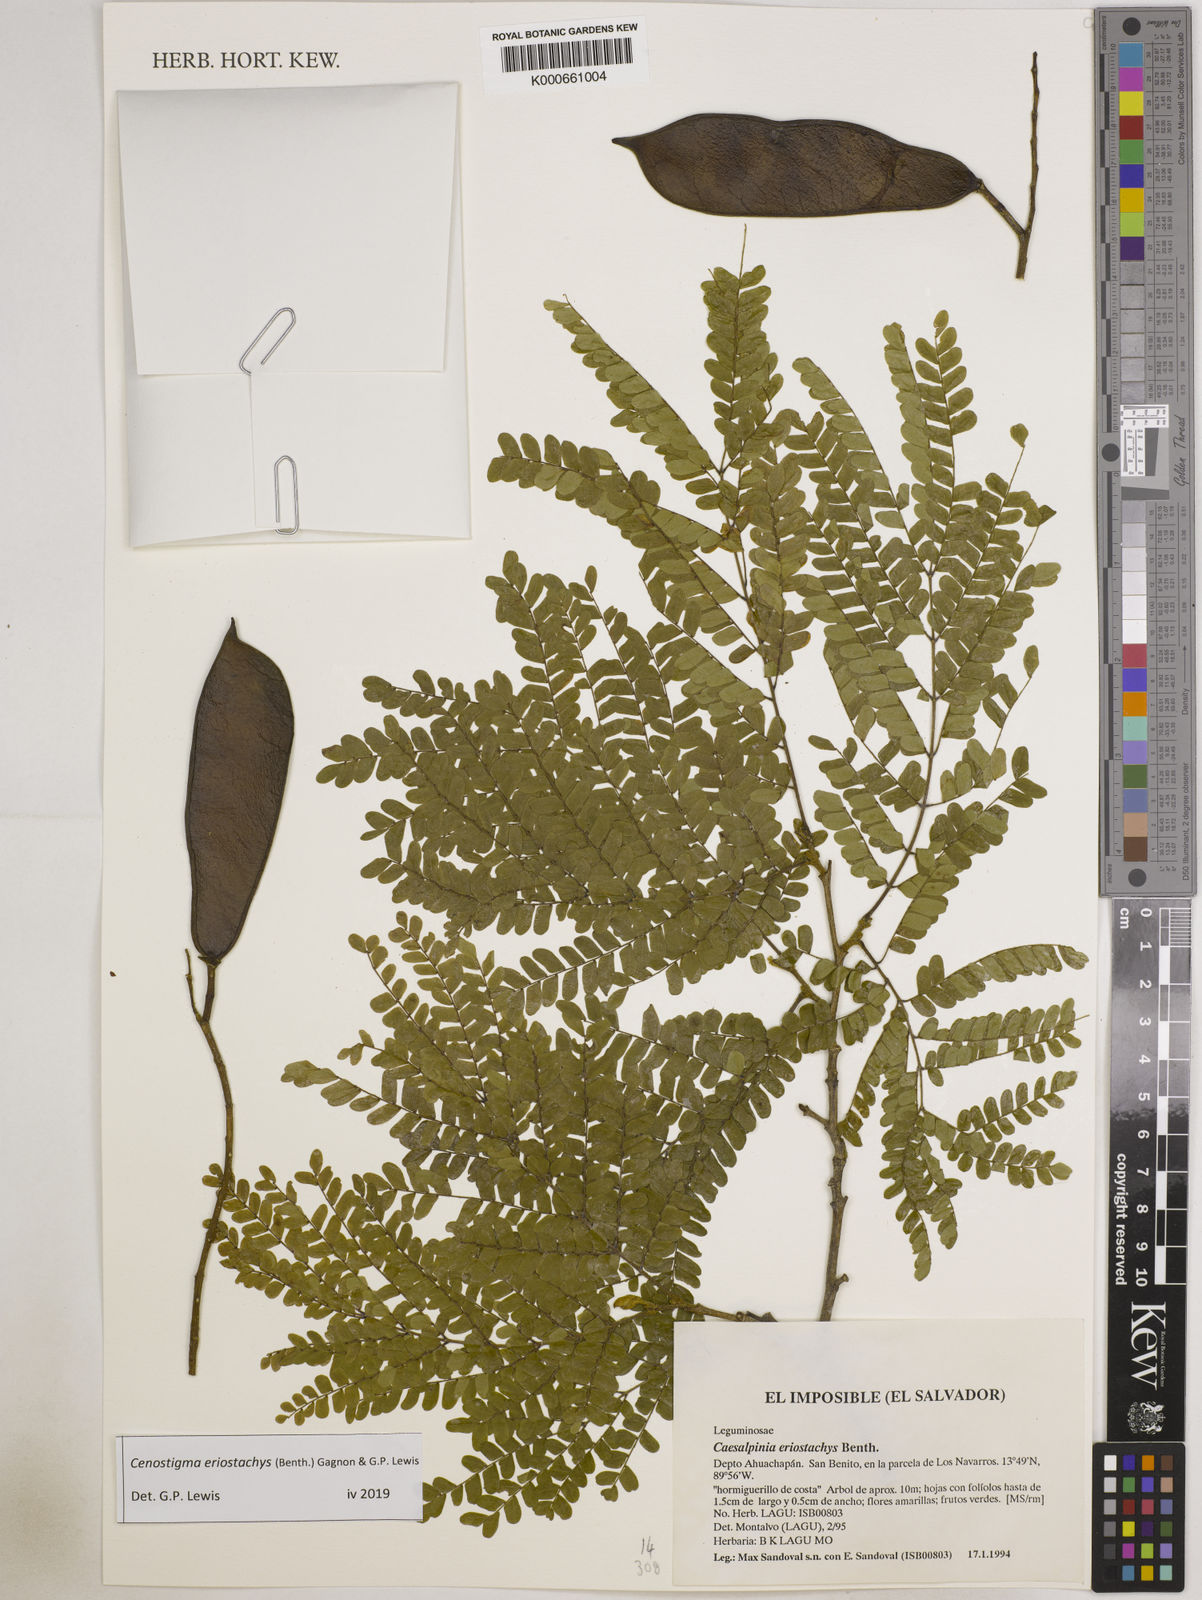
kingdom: Plantae
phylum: Tracheophyta
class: Magnoliopsida
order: Fabales
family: Fabaceae
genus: Cenostigma
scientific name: Cenostigma eriostachys
